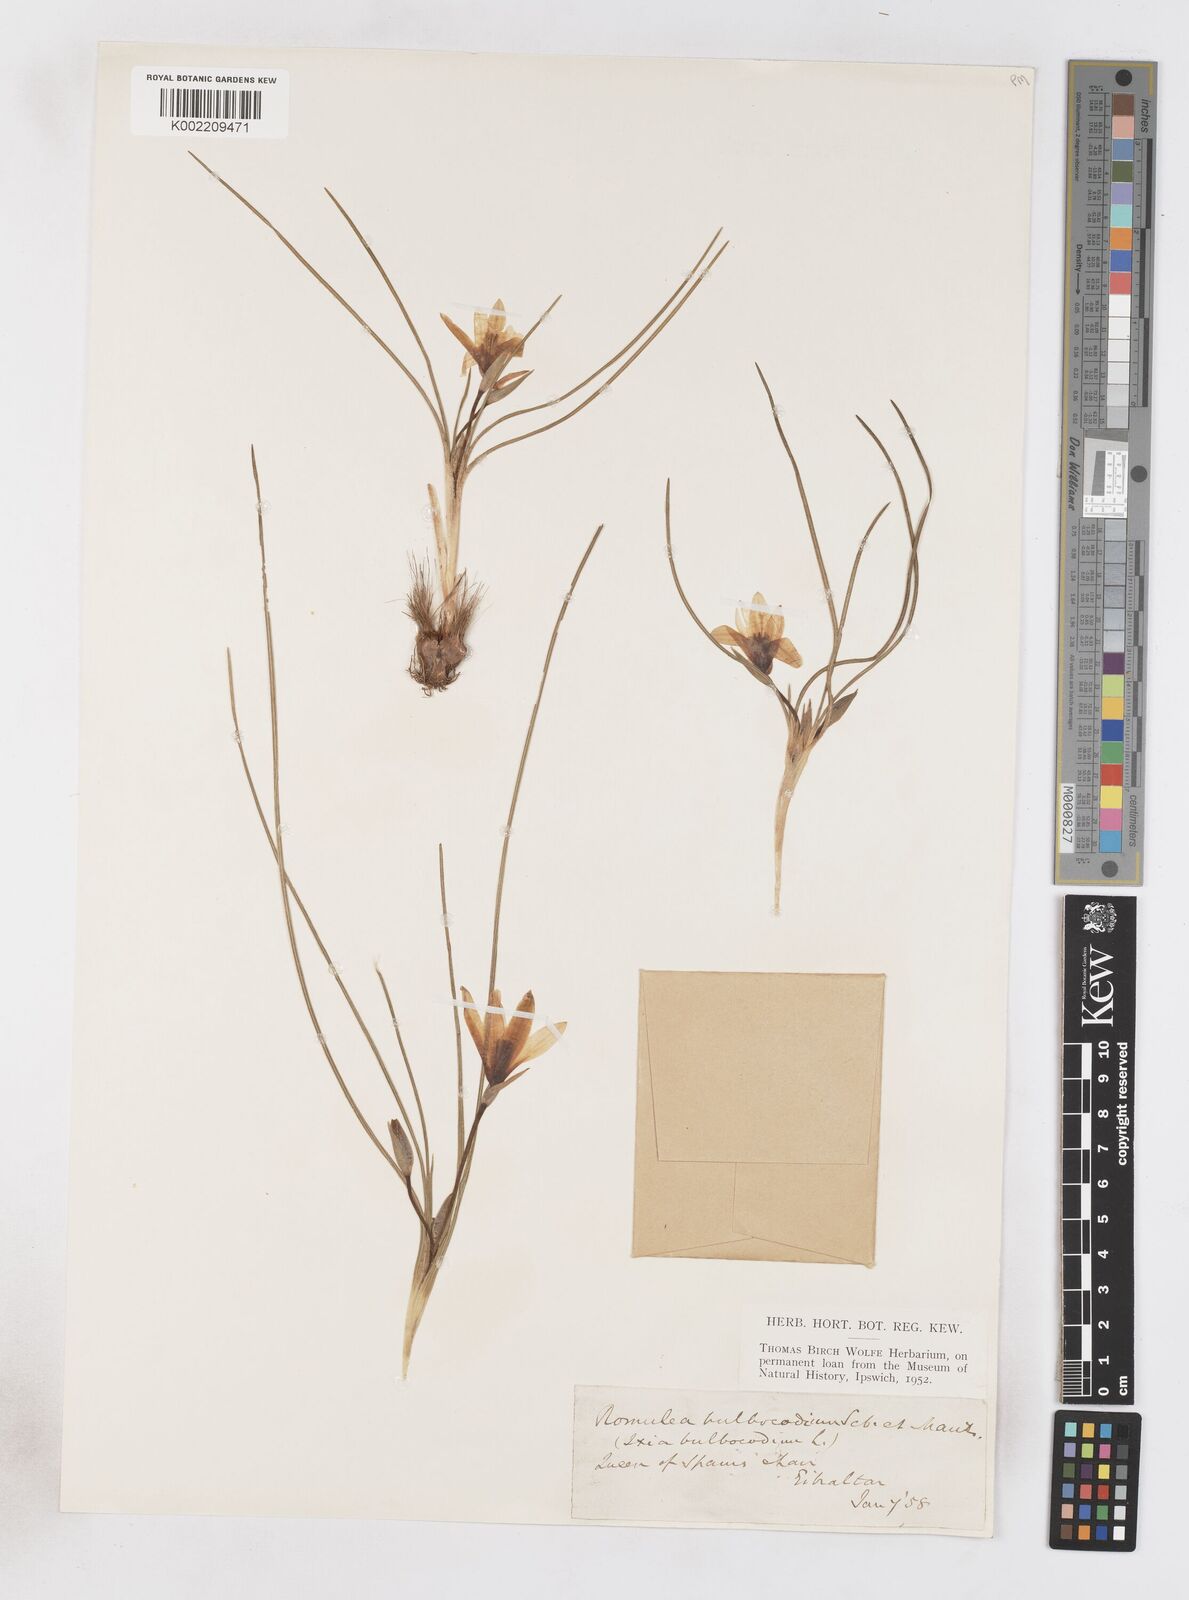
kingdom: Plantae
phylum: Tracheophyta
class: Liliopsida
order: Asparagales
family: Iridaceae
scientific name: Iridaceae
